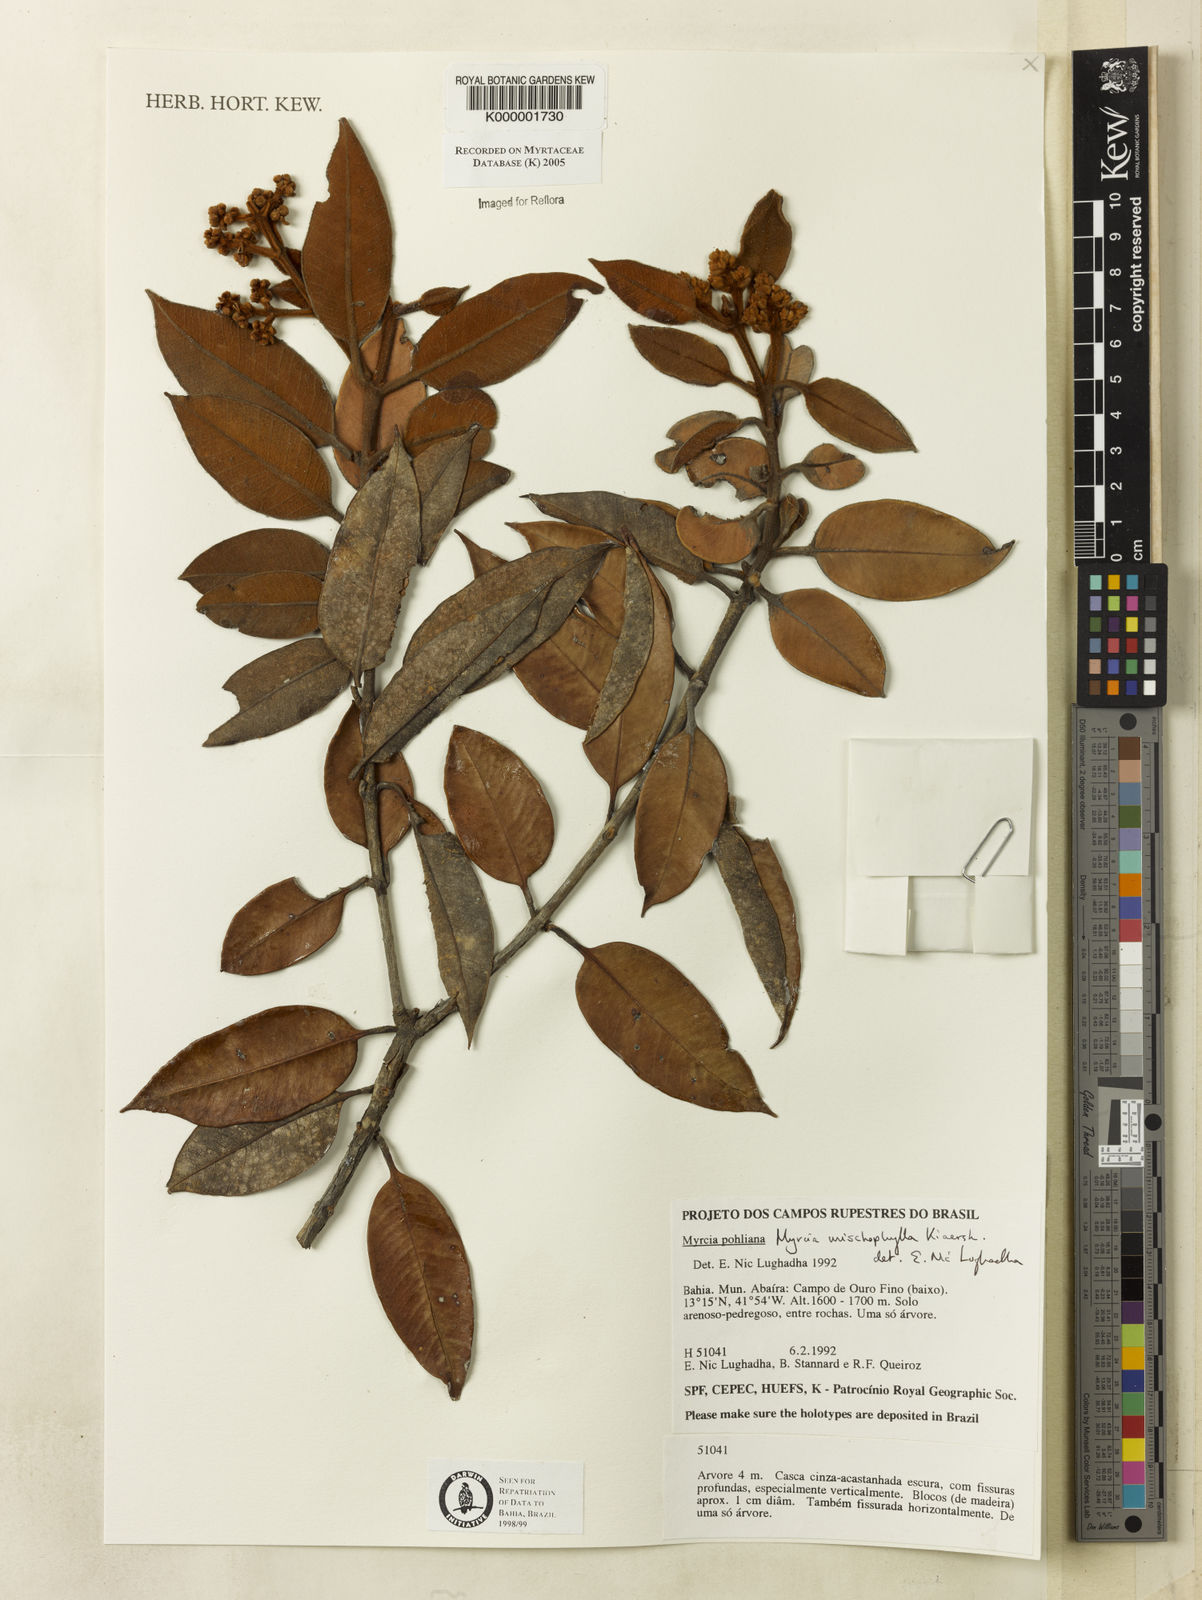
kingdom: Plantae
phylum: Tracheophyta
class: Magnoliopsida
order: Myrtales
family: Myrtaceae
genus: Myrcia
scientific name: Myrcia splendens
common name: Surinam cherry
